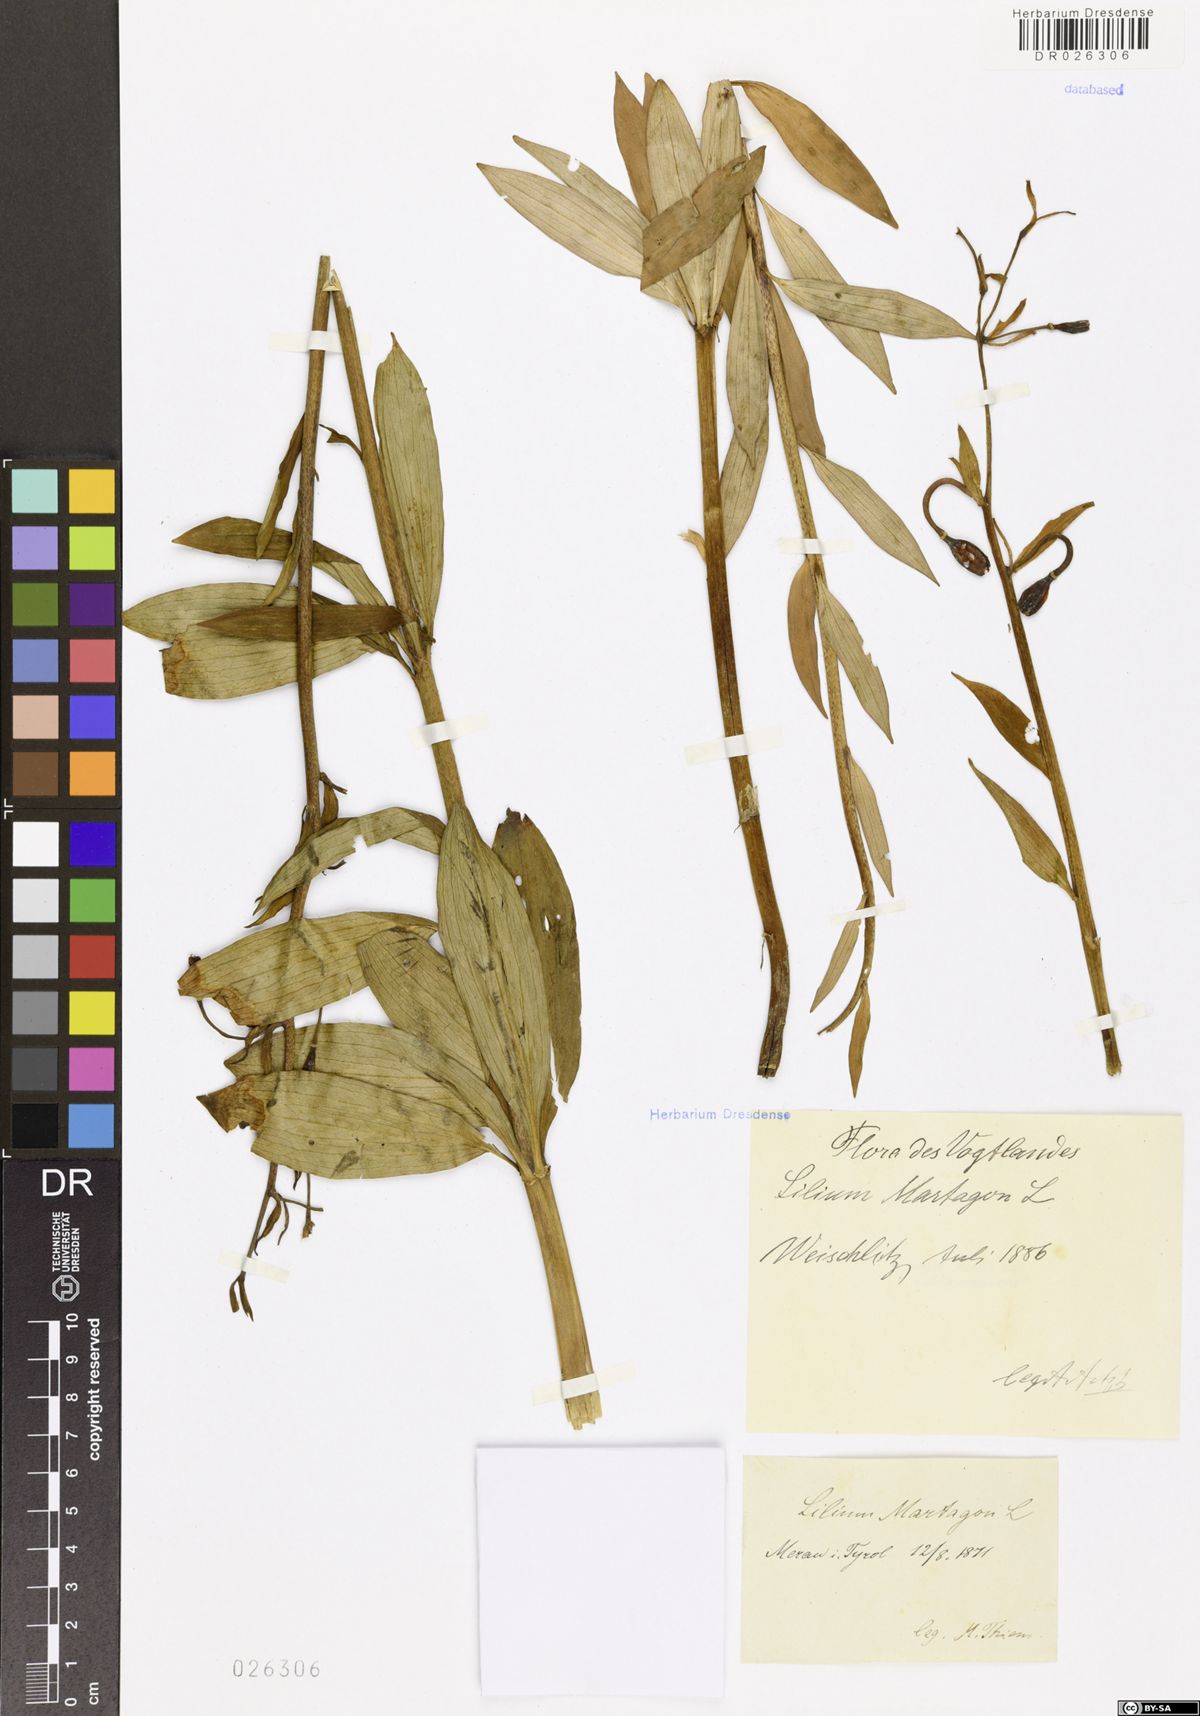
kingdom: Plantae
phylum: Tracheophyta
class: Liliopsida
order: Liliales
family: Liliaceae
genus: Lilium
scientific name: Lilium martagon
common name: Martagon lily
